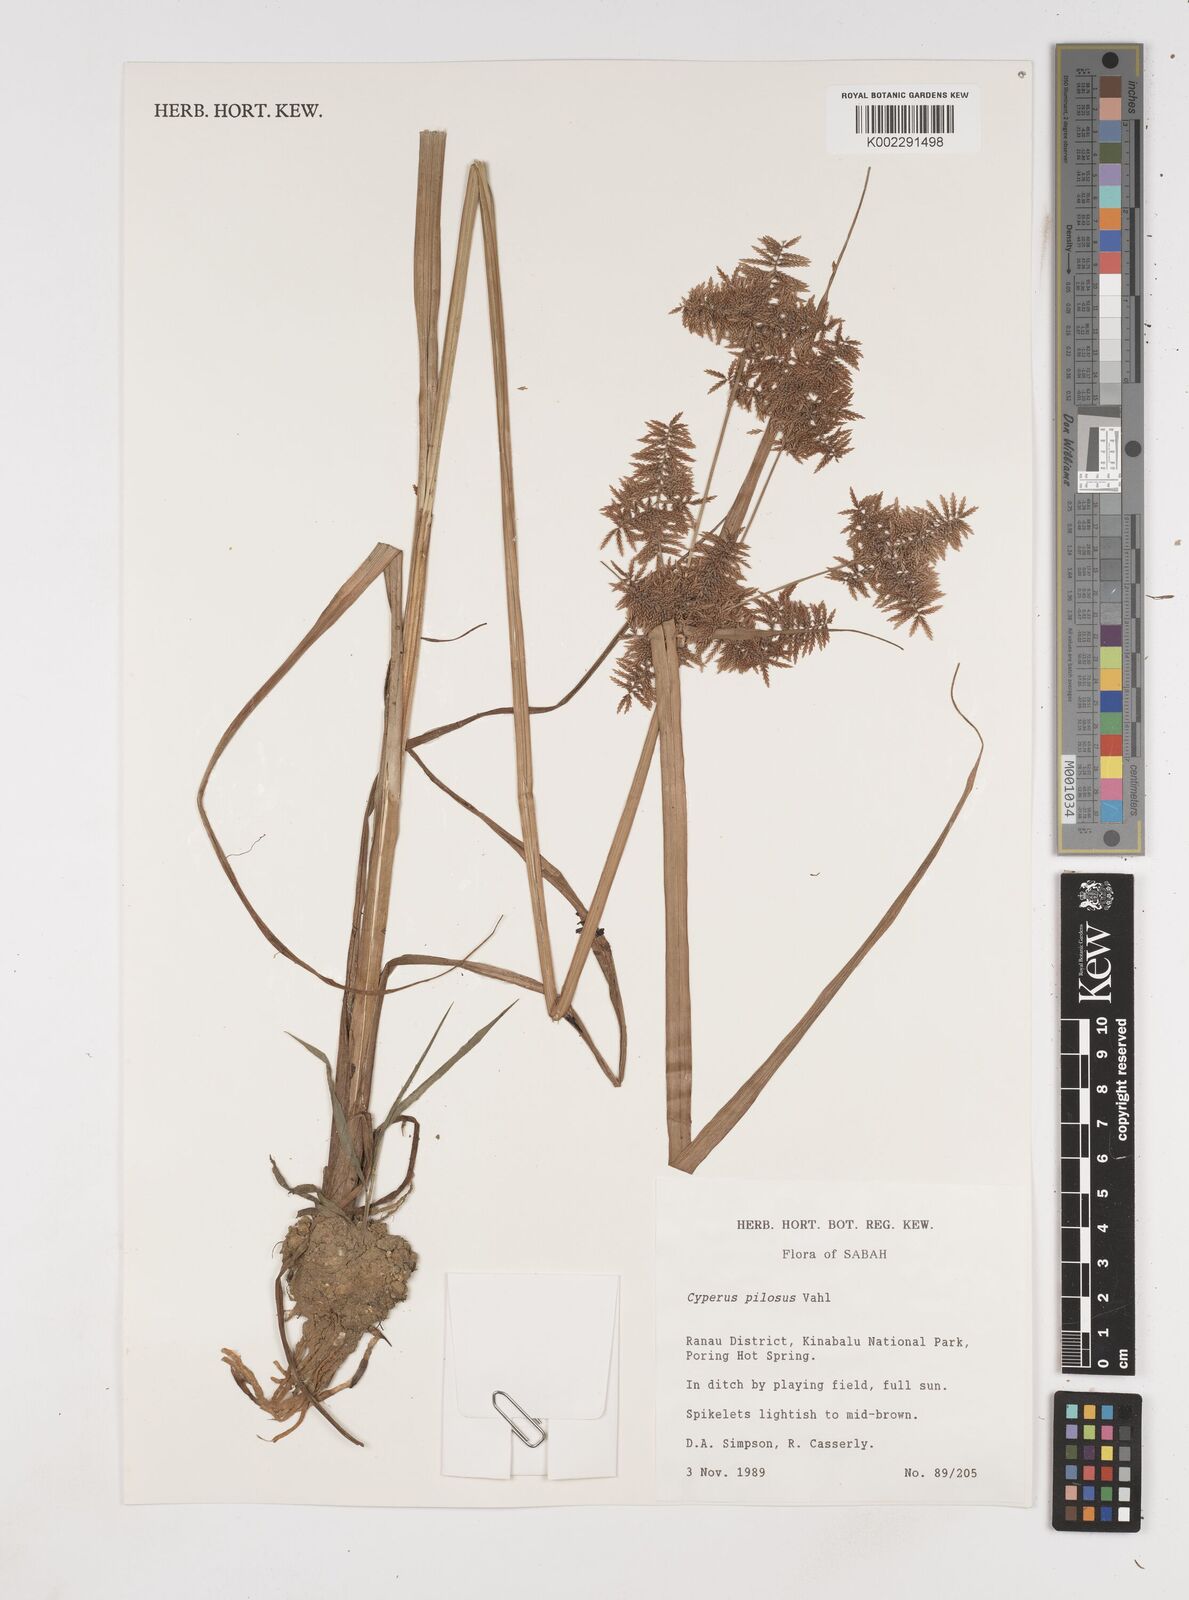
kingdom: Plantae
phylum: Tracheophyta
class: Liliopsida
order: Poales
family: Cyperaceae
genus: Cyperus
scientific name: Cyperus pilosus
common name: Fuzzy flatsedge
